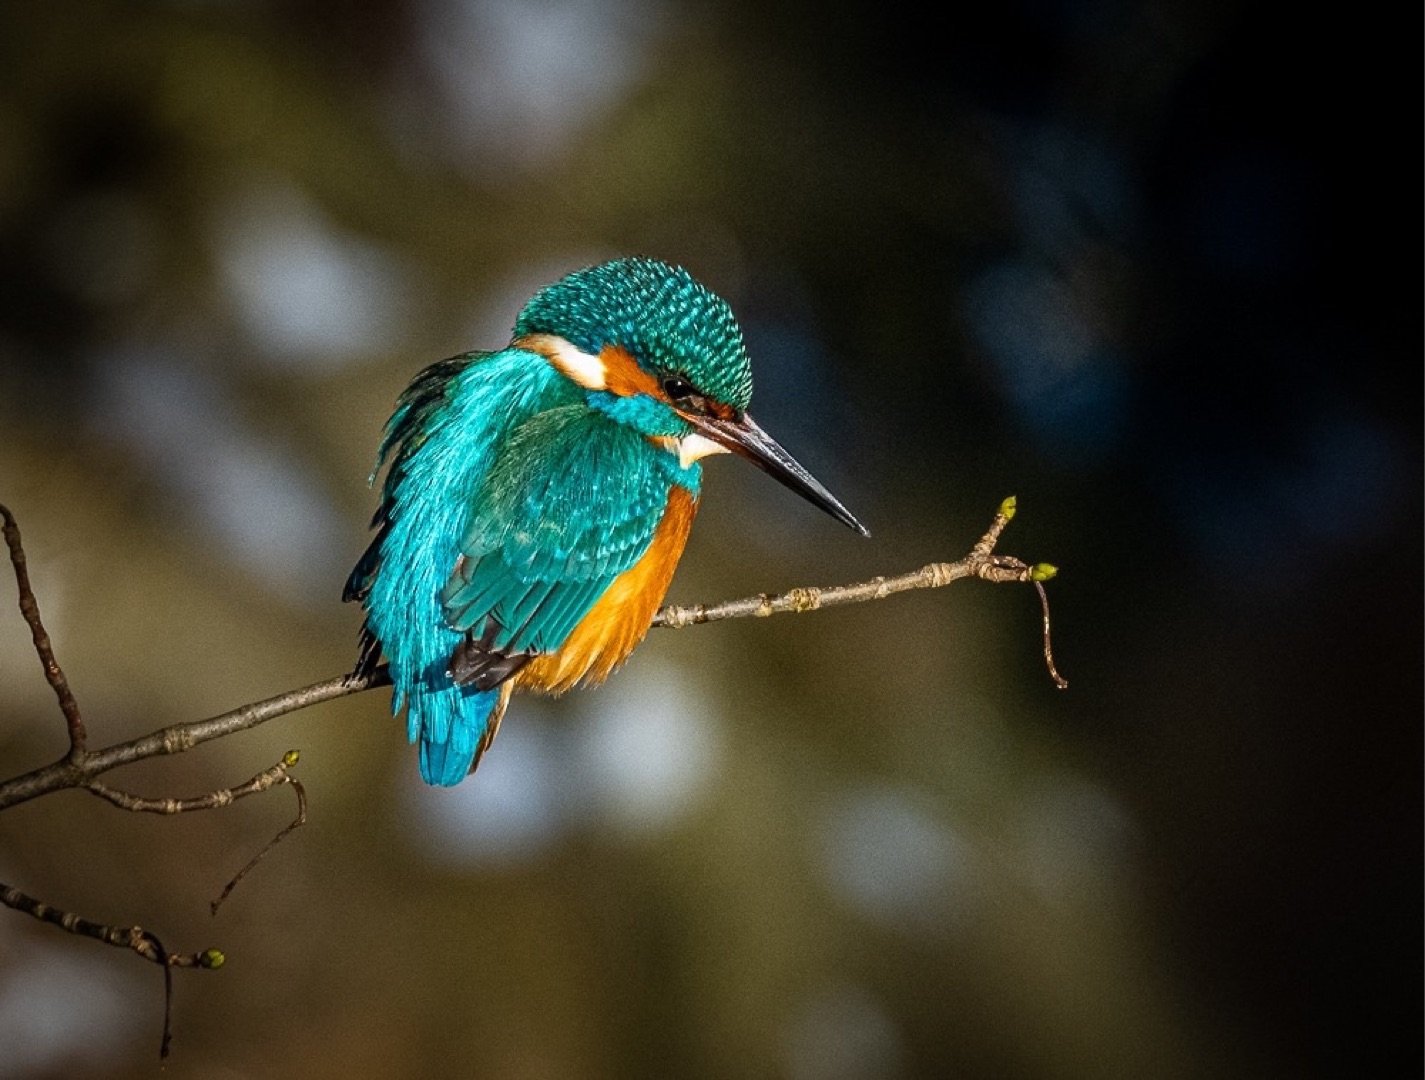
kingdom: Animalia
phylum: Chordata
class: Aves
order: Coraciiformes
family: Alcedinidae
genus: Alcedo
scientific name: Alcedo atthis
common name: Isfugl
